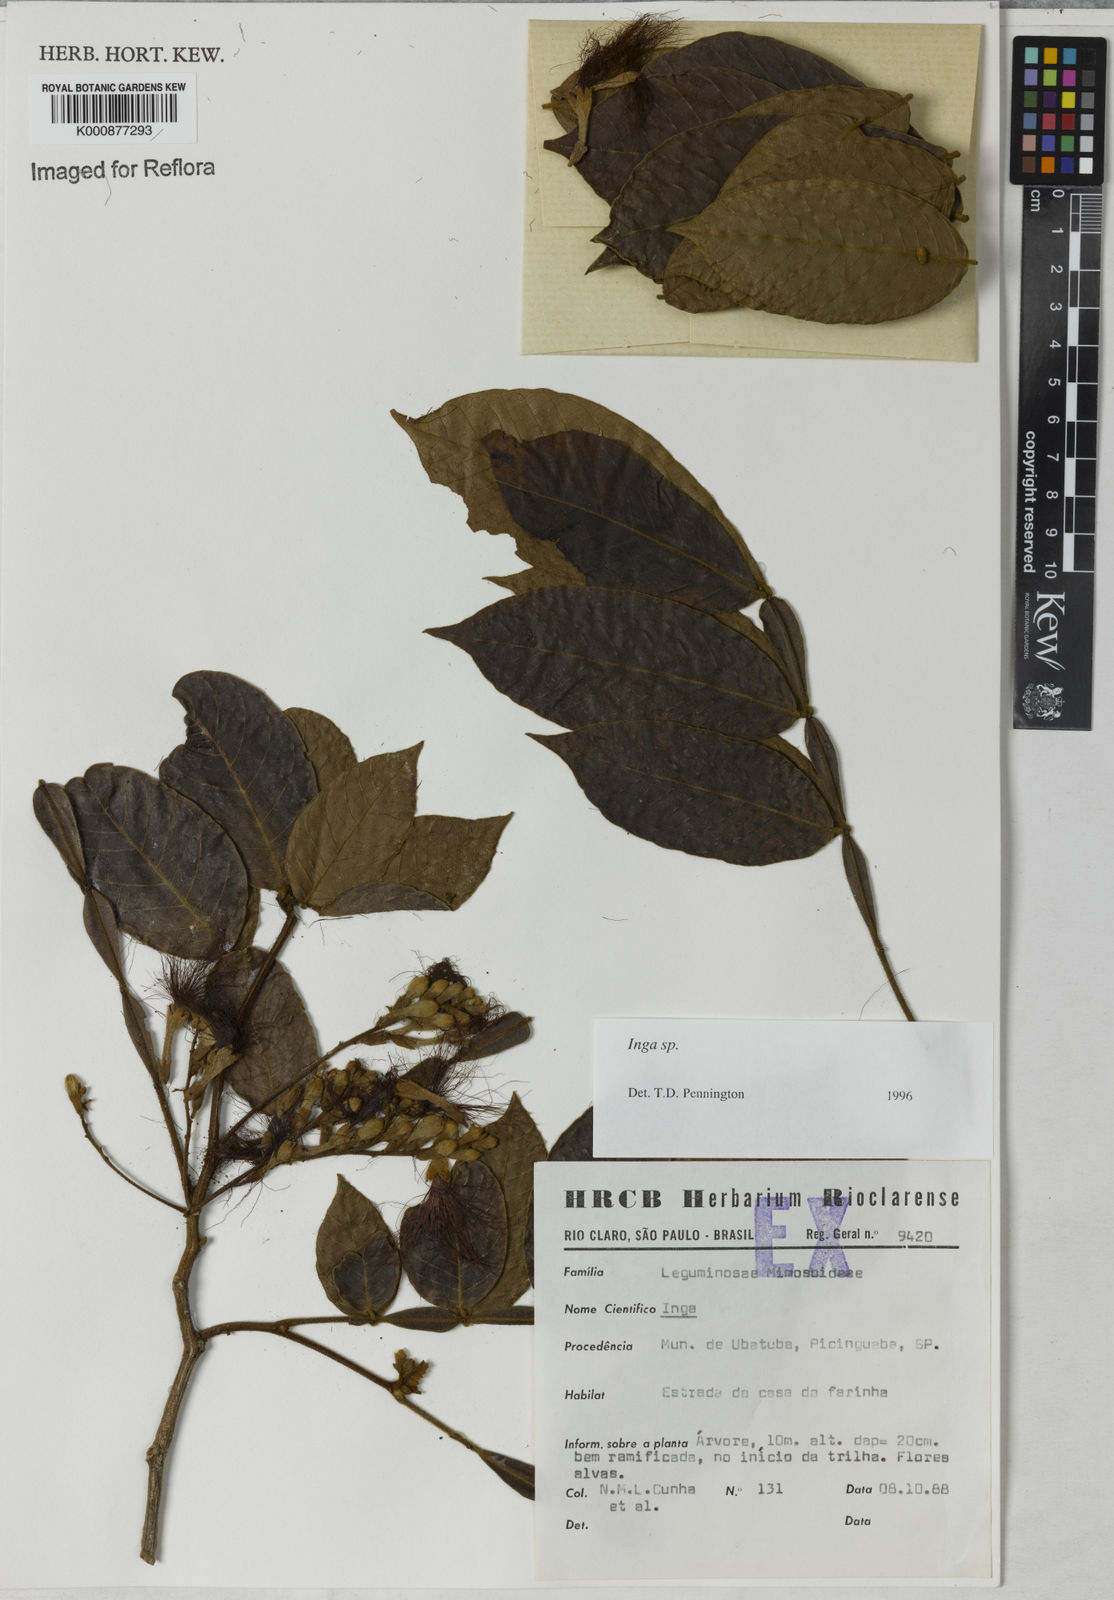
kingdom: Plantae
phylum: Tracheophyta
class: Magnoliopsida
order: Fabales
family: Fabaceae
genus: Inga
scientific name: Inga
